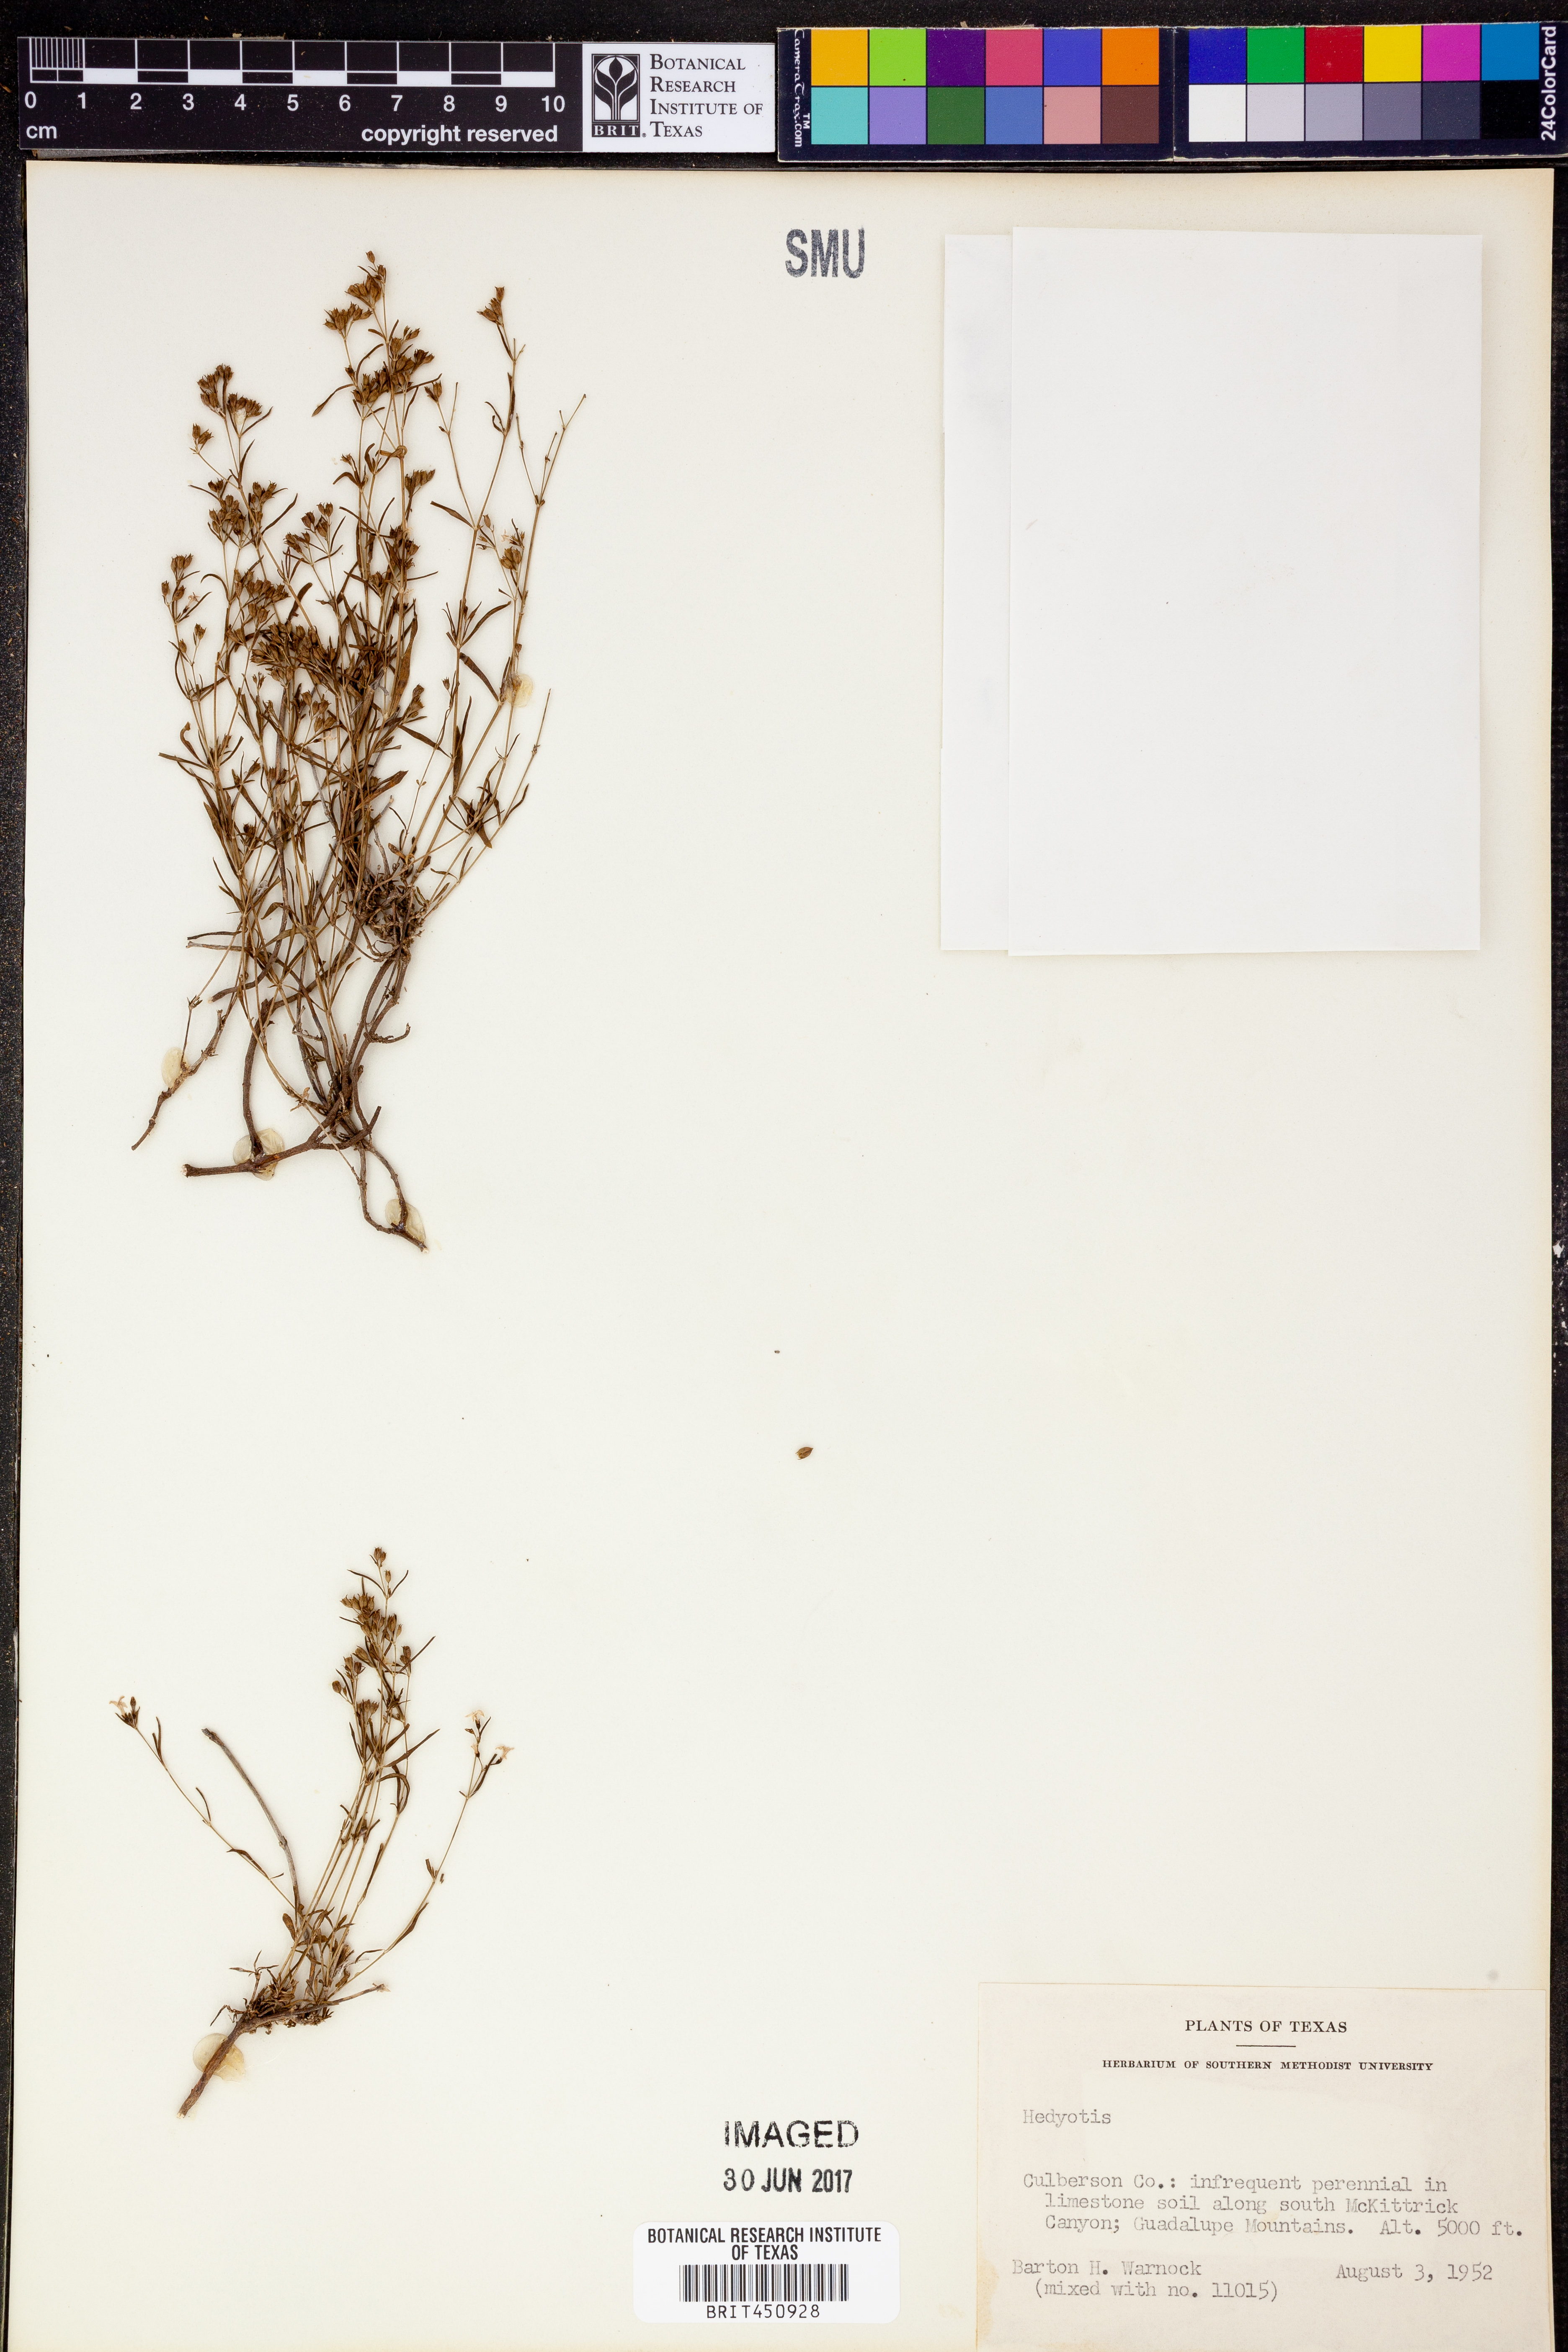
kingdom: Plantae
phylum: Tracheophyta
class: Magnoliopsida
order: Gentianales
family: Rubiaceae
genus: Hedyotis
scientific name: Hedyotis
